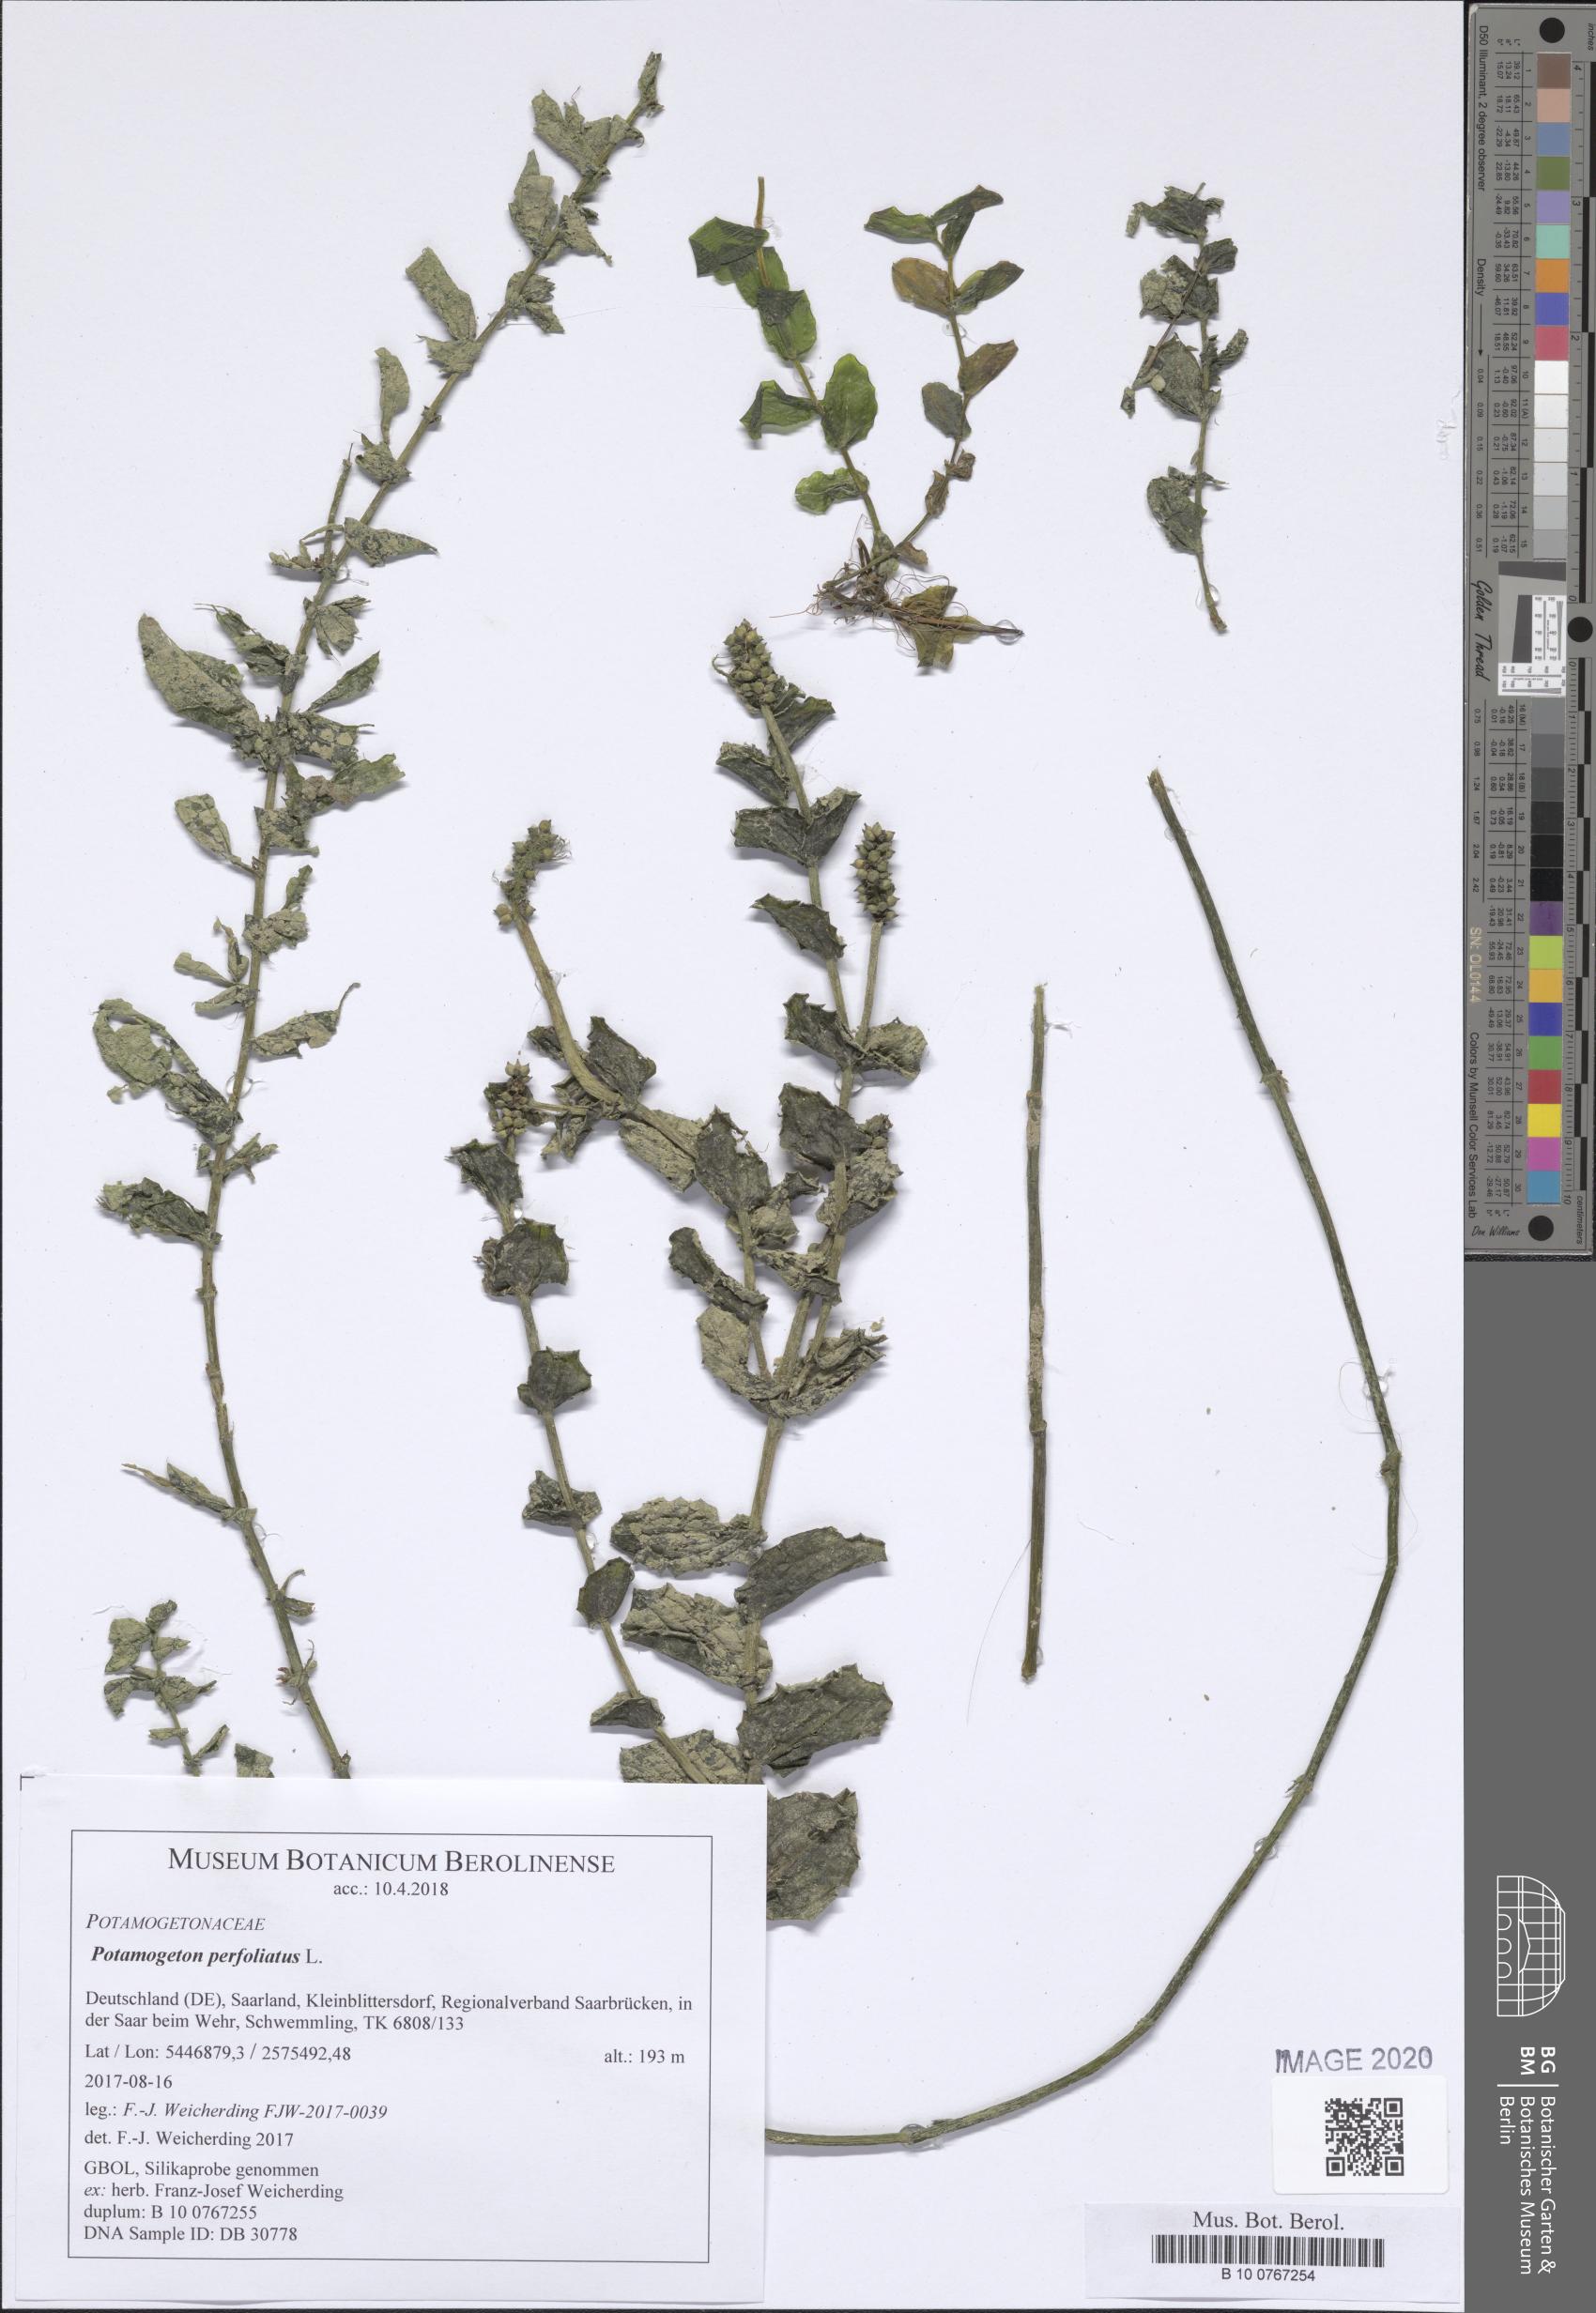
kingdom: Plantae
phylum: Tracheophyta
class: Liliopsida
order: Alismatales
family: Potamogetonaceae
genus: Potamogeton
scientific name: Potamogeton perfoliatus
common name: Perfoliate pondweed
